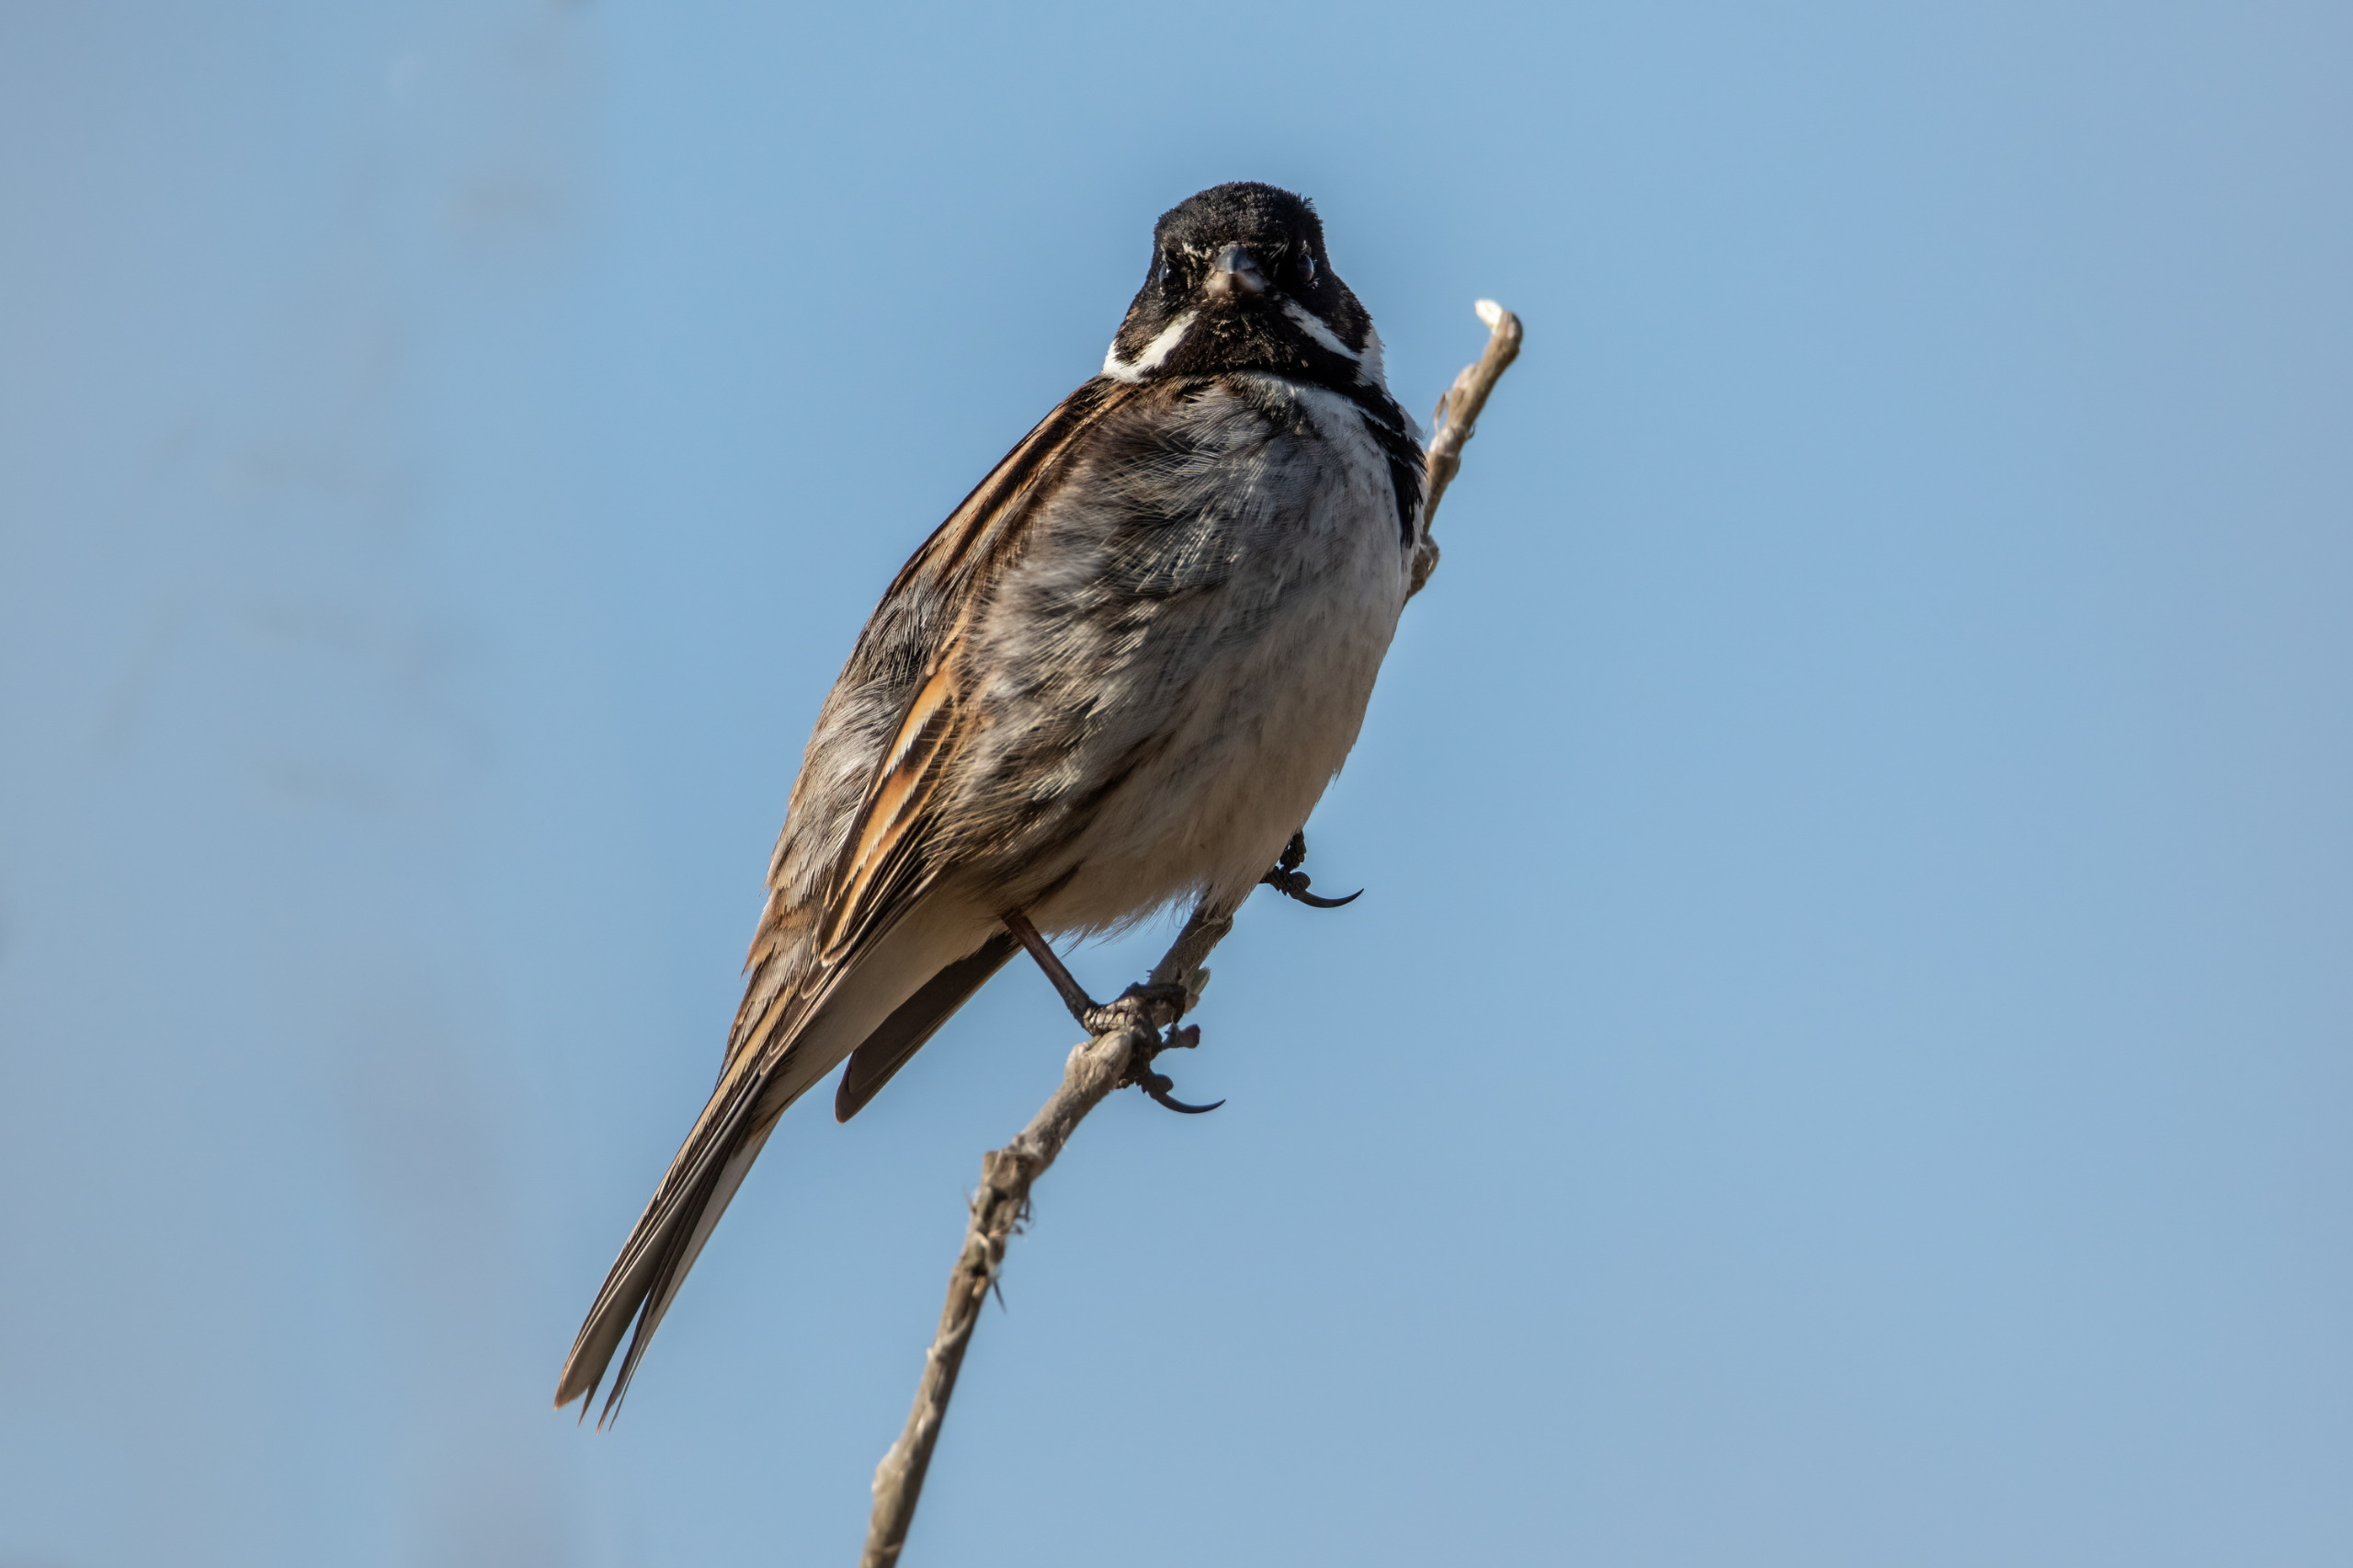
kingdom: Animalia
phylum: Chordata
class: Aves
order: Passeriformes
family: Emberizidae
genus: Emberiza
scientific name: Emberiza schoeniclus
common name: Rørspurv
